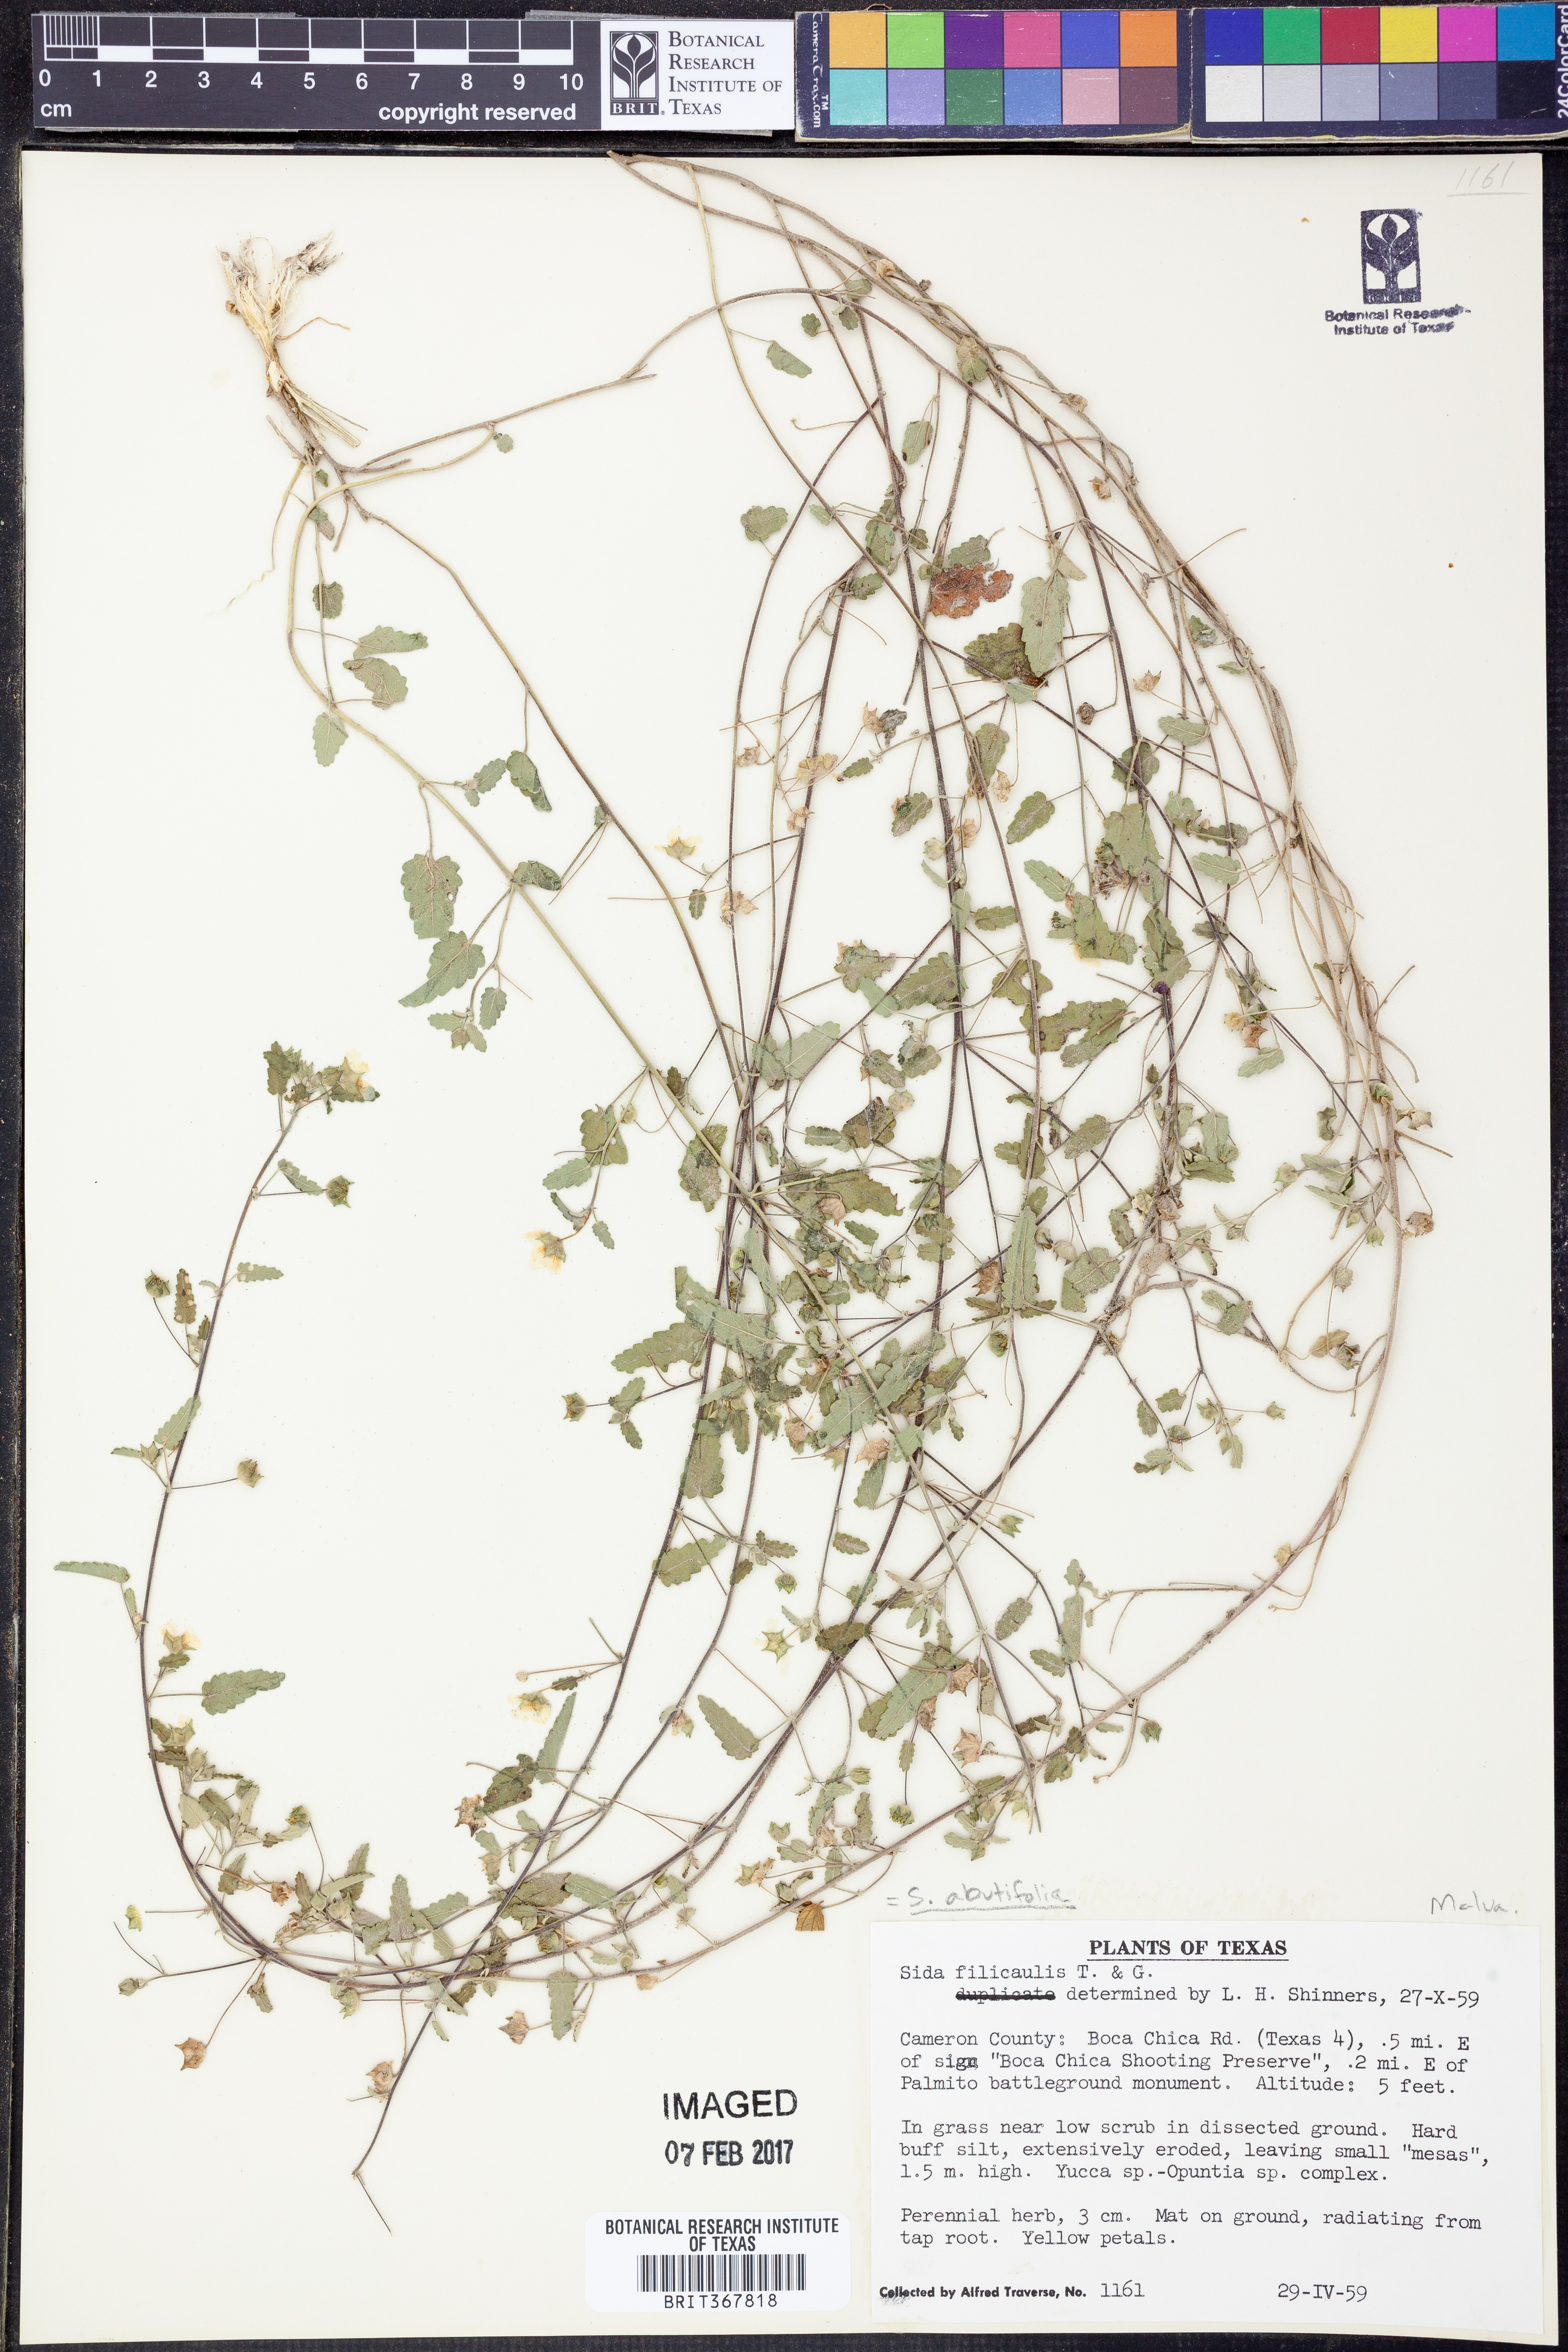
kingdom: Plantae
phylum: Tracheophyta
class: Magnoliopsida
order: Malvales
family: Malvaceae
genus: Sida
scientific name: Sida abutifolia
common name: Spreading fantails
